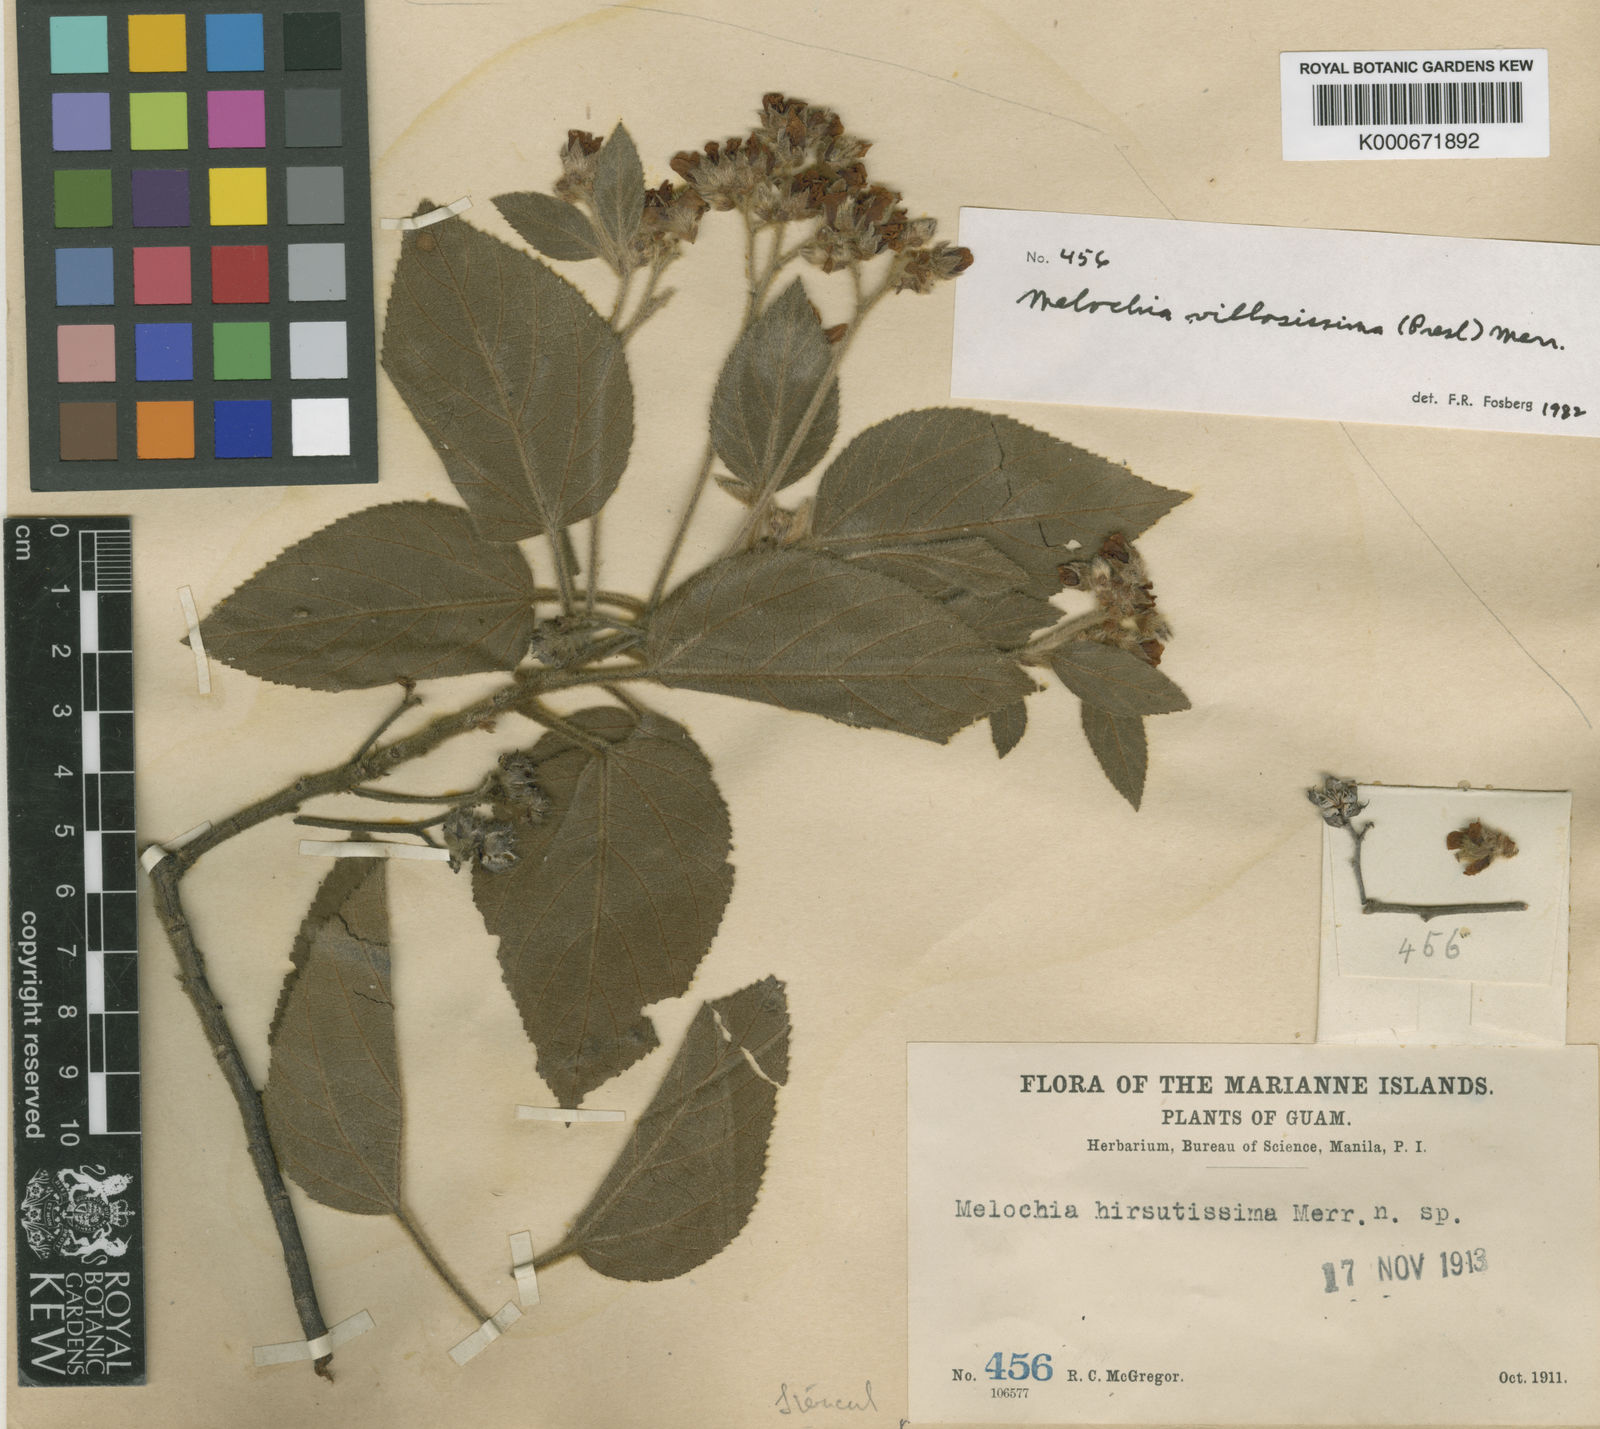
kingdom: Plantae
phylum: Tracheophyta
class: Magnoliopsida
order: Malvales
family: Malvaceae
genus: Melochia
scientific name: Melochia villosissima
